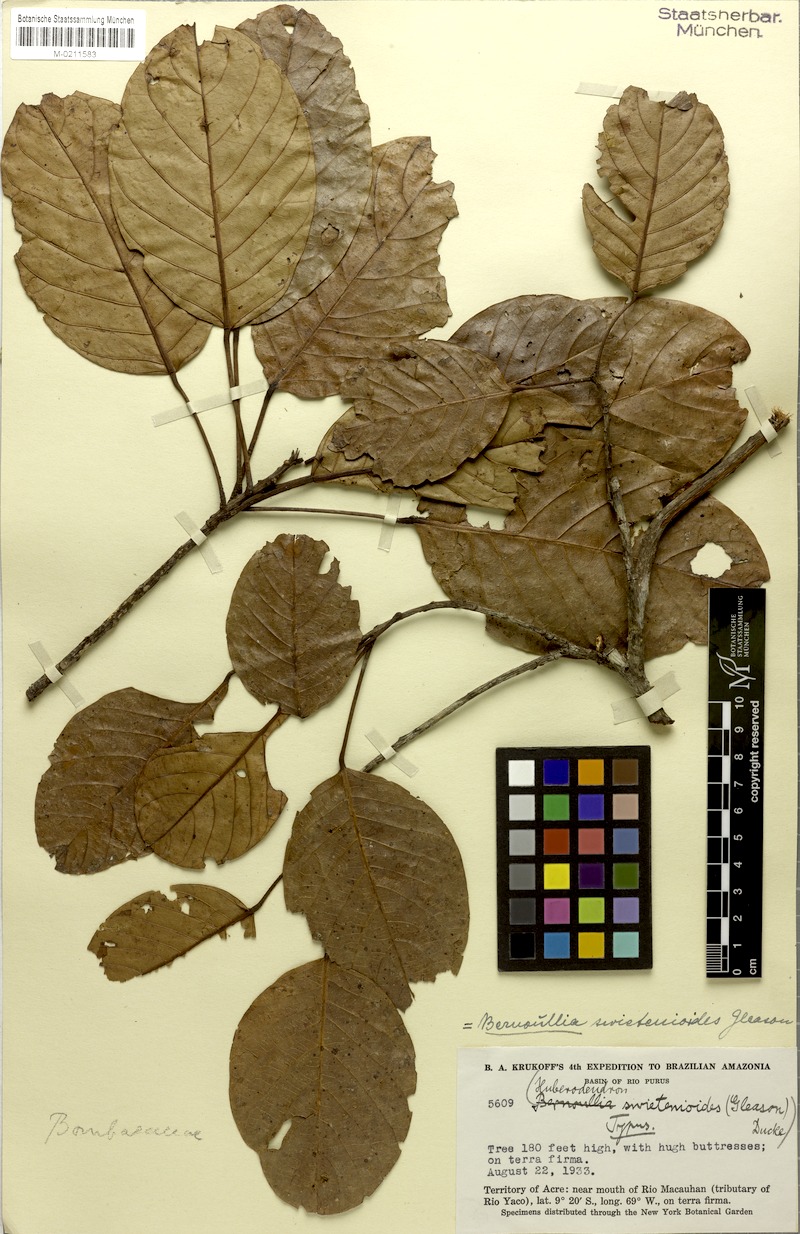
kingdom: Plantae
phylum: Tracheophyta
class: Magnoliopsida
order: Malvales
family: Malvaceae
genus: Huberodendron
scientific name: Huberodendron swietenioides
